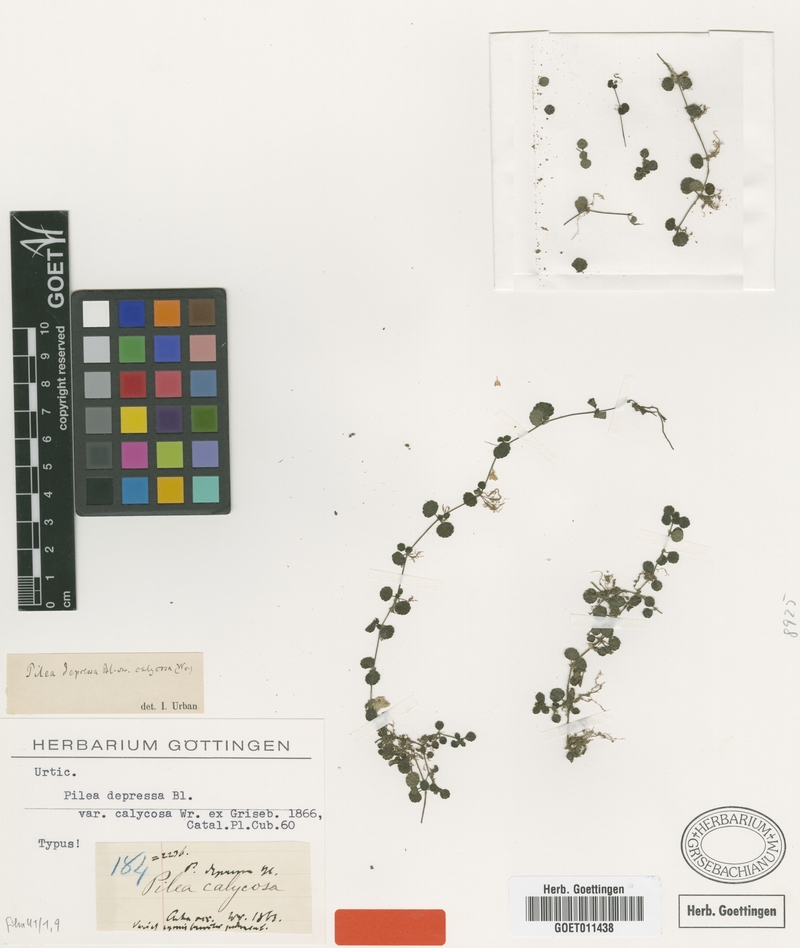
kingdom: Plantae
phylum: Tracheophyta
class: Magnoliopsida
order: Rosales
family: Urticaceae
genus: Pilea
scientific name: Pilea depressa
